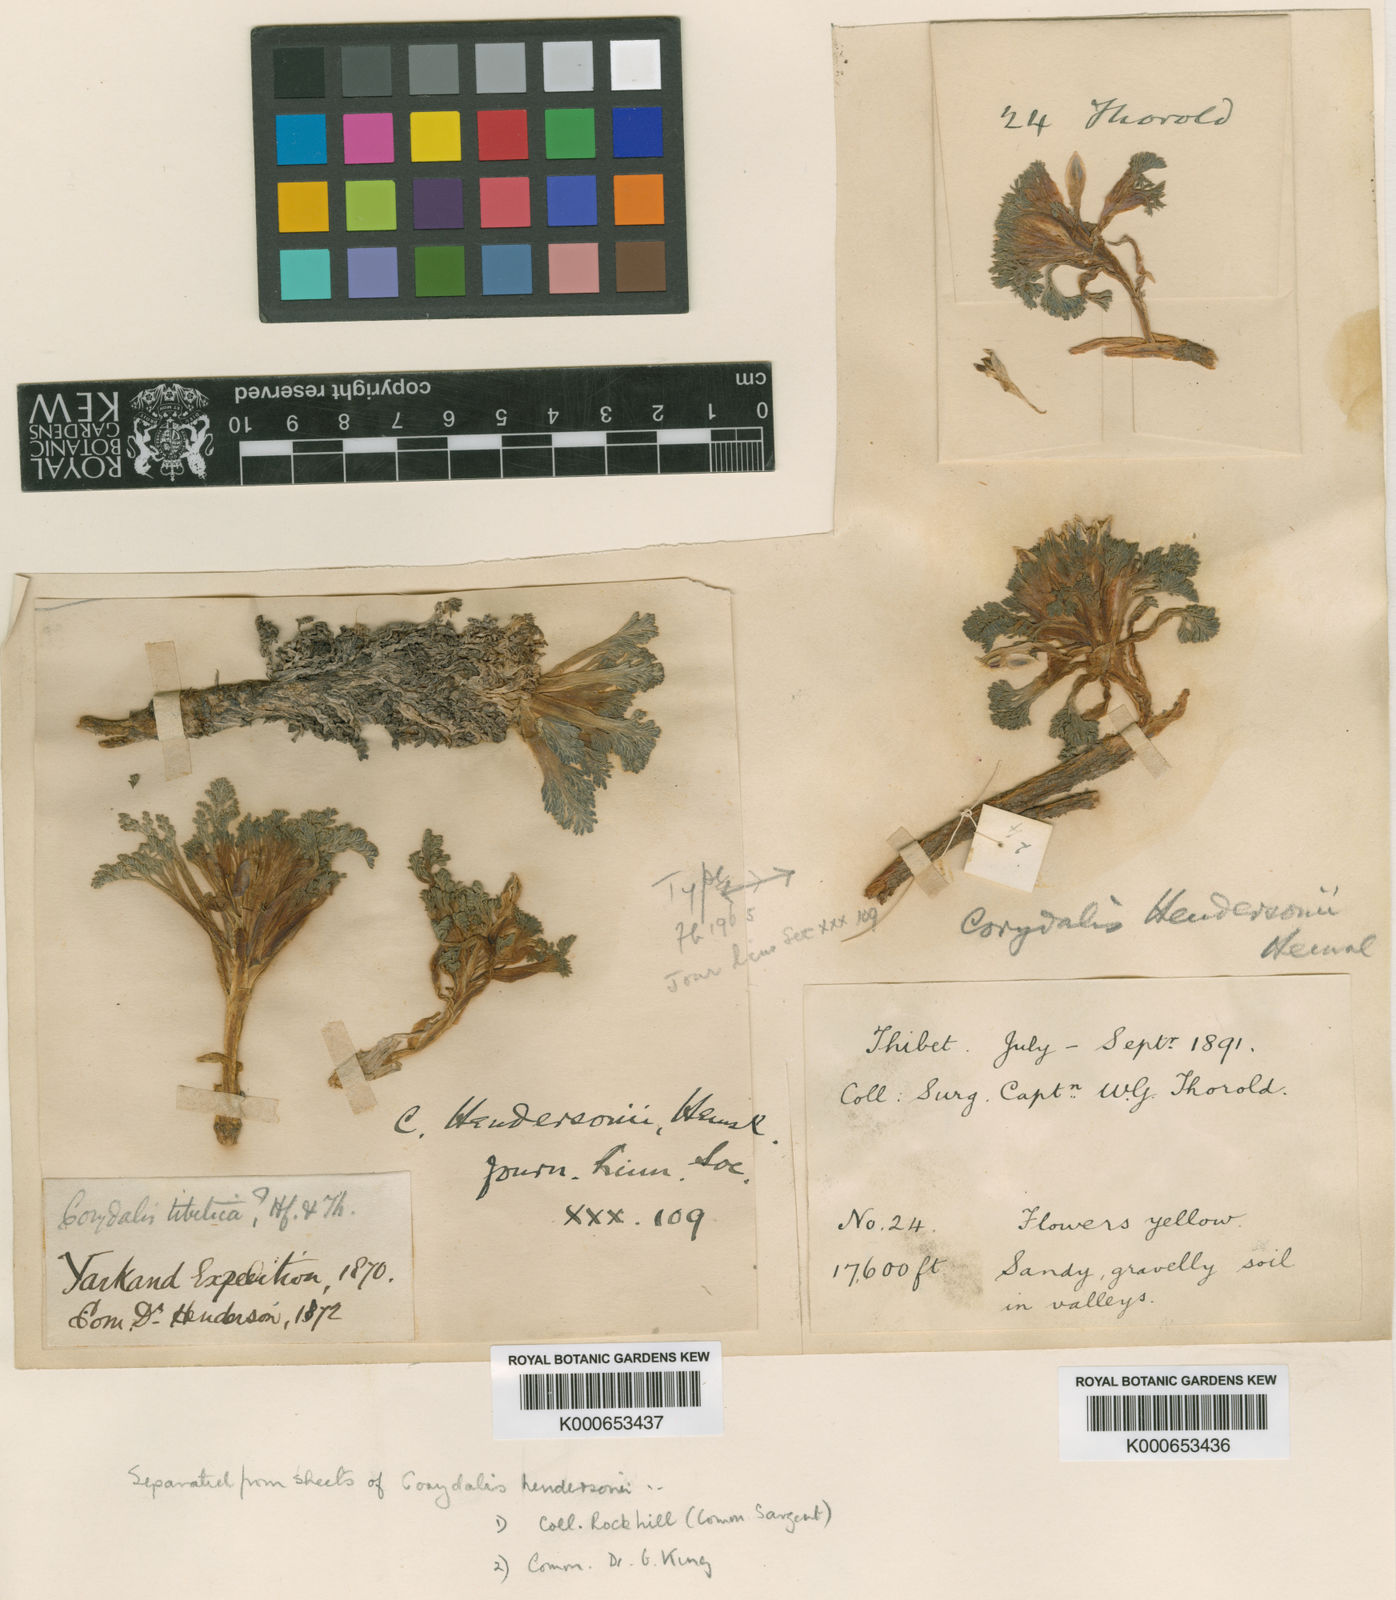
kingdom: Plantae
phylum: Tracheophyta
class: Magnoliopsida
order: Ranunculales
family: Papaveraceae
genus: Corydalis
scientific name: Corydalis hendersonii
